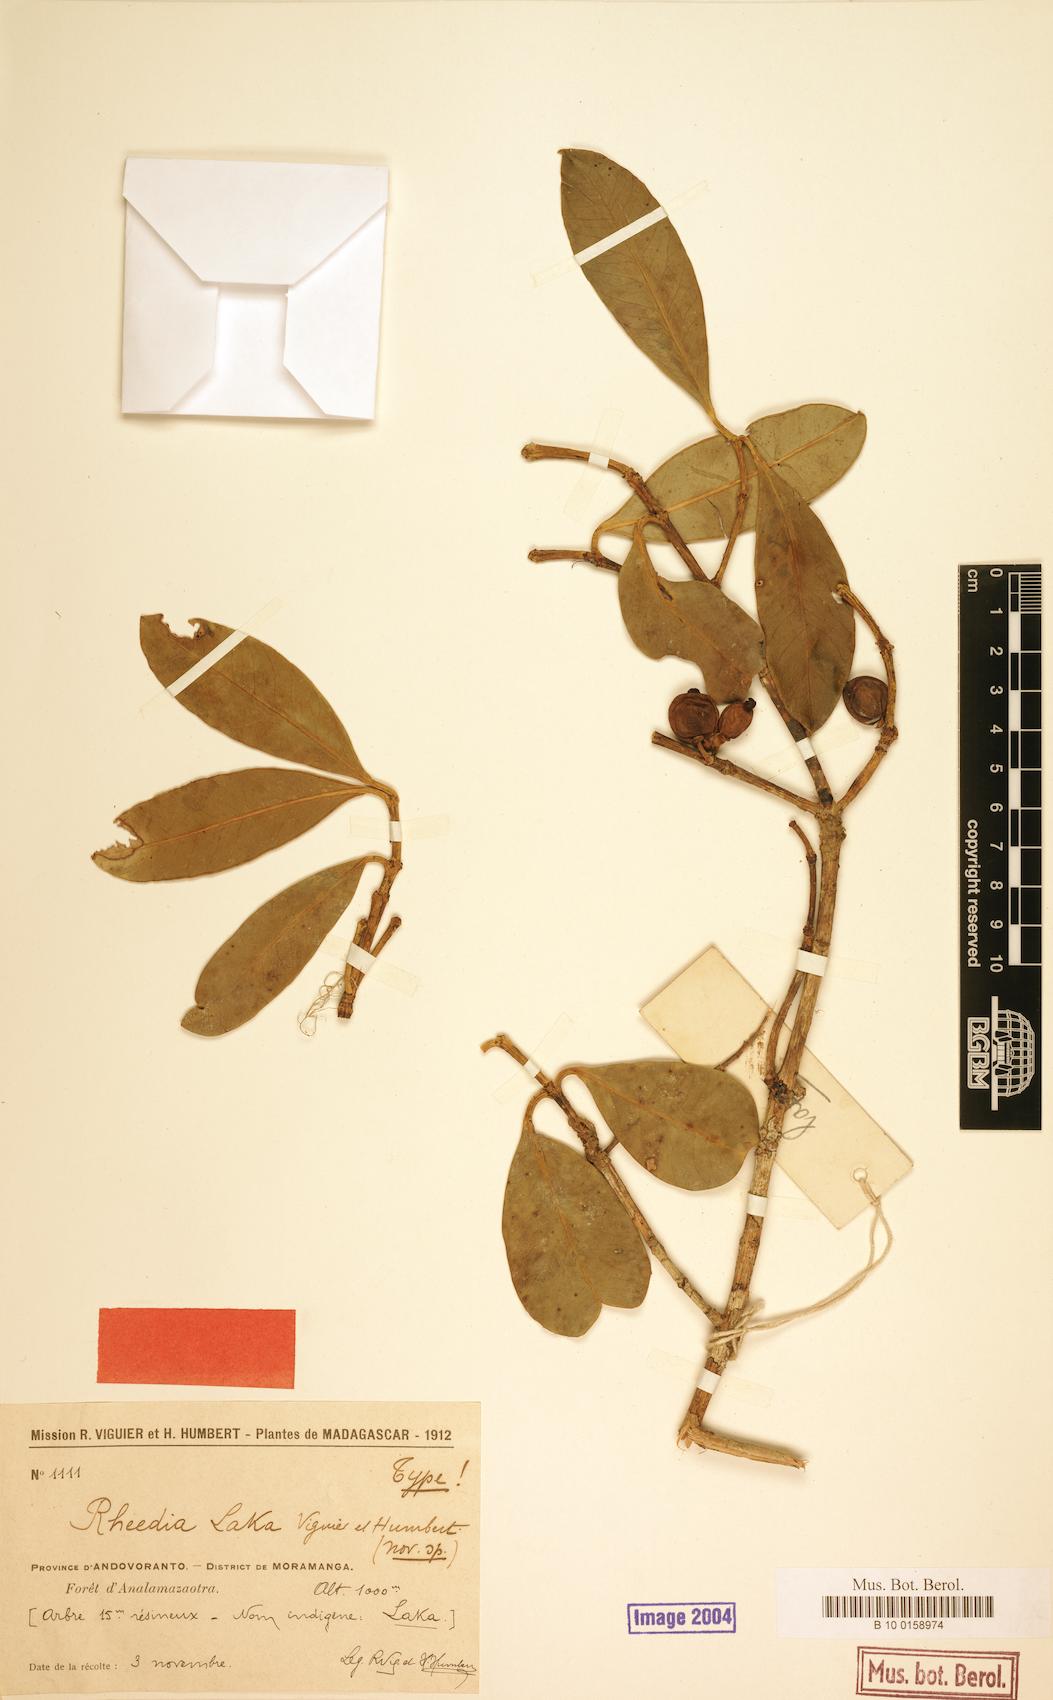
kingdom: Plantae
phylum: Tracheophyta
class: Magnoliopsida
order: Malpighiales
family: Clusiaceae
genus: Garcinia
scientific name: Garcinia orthoclada
